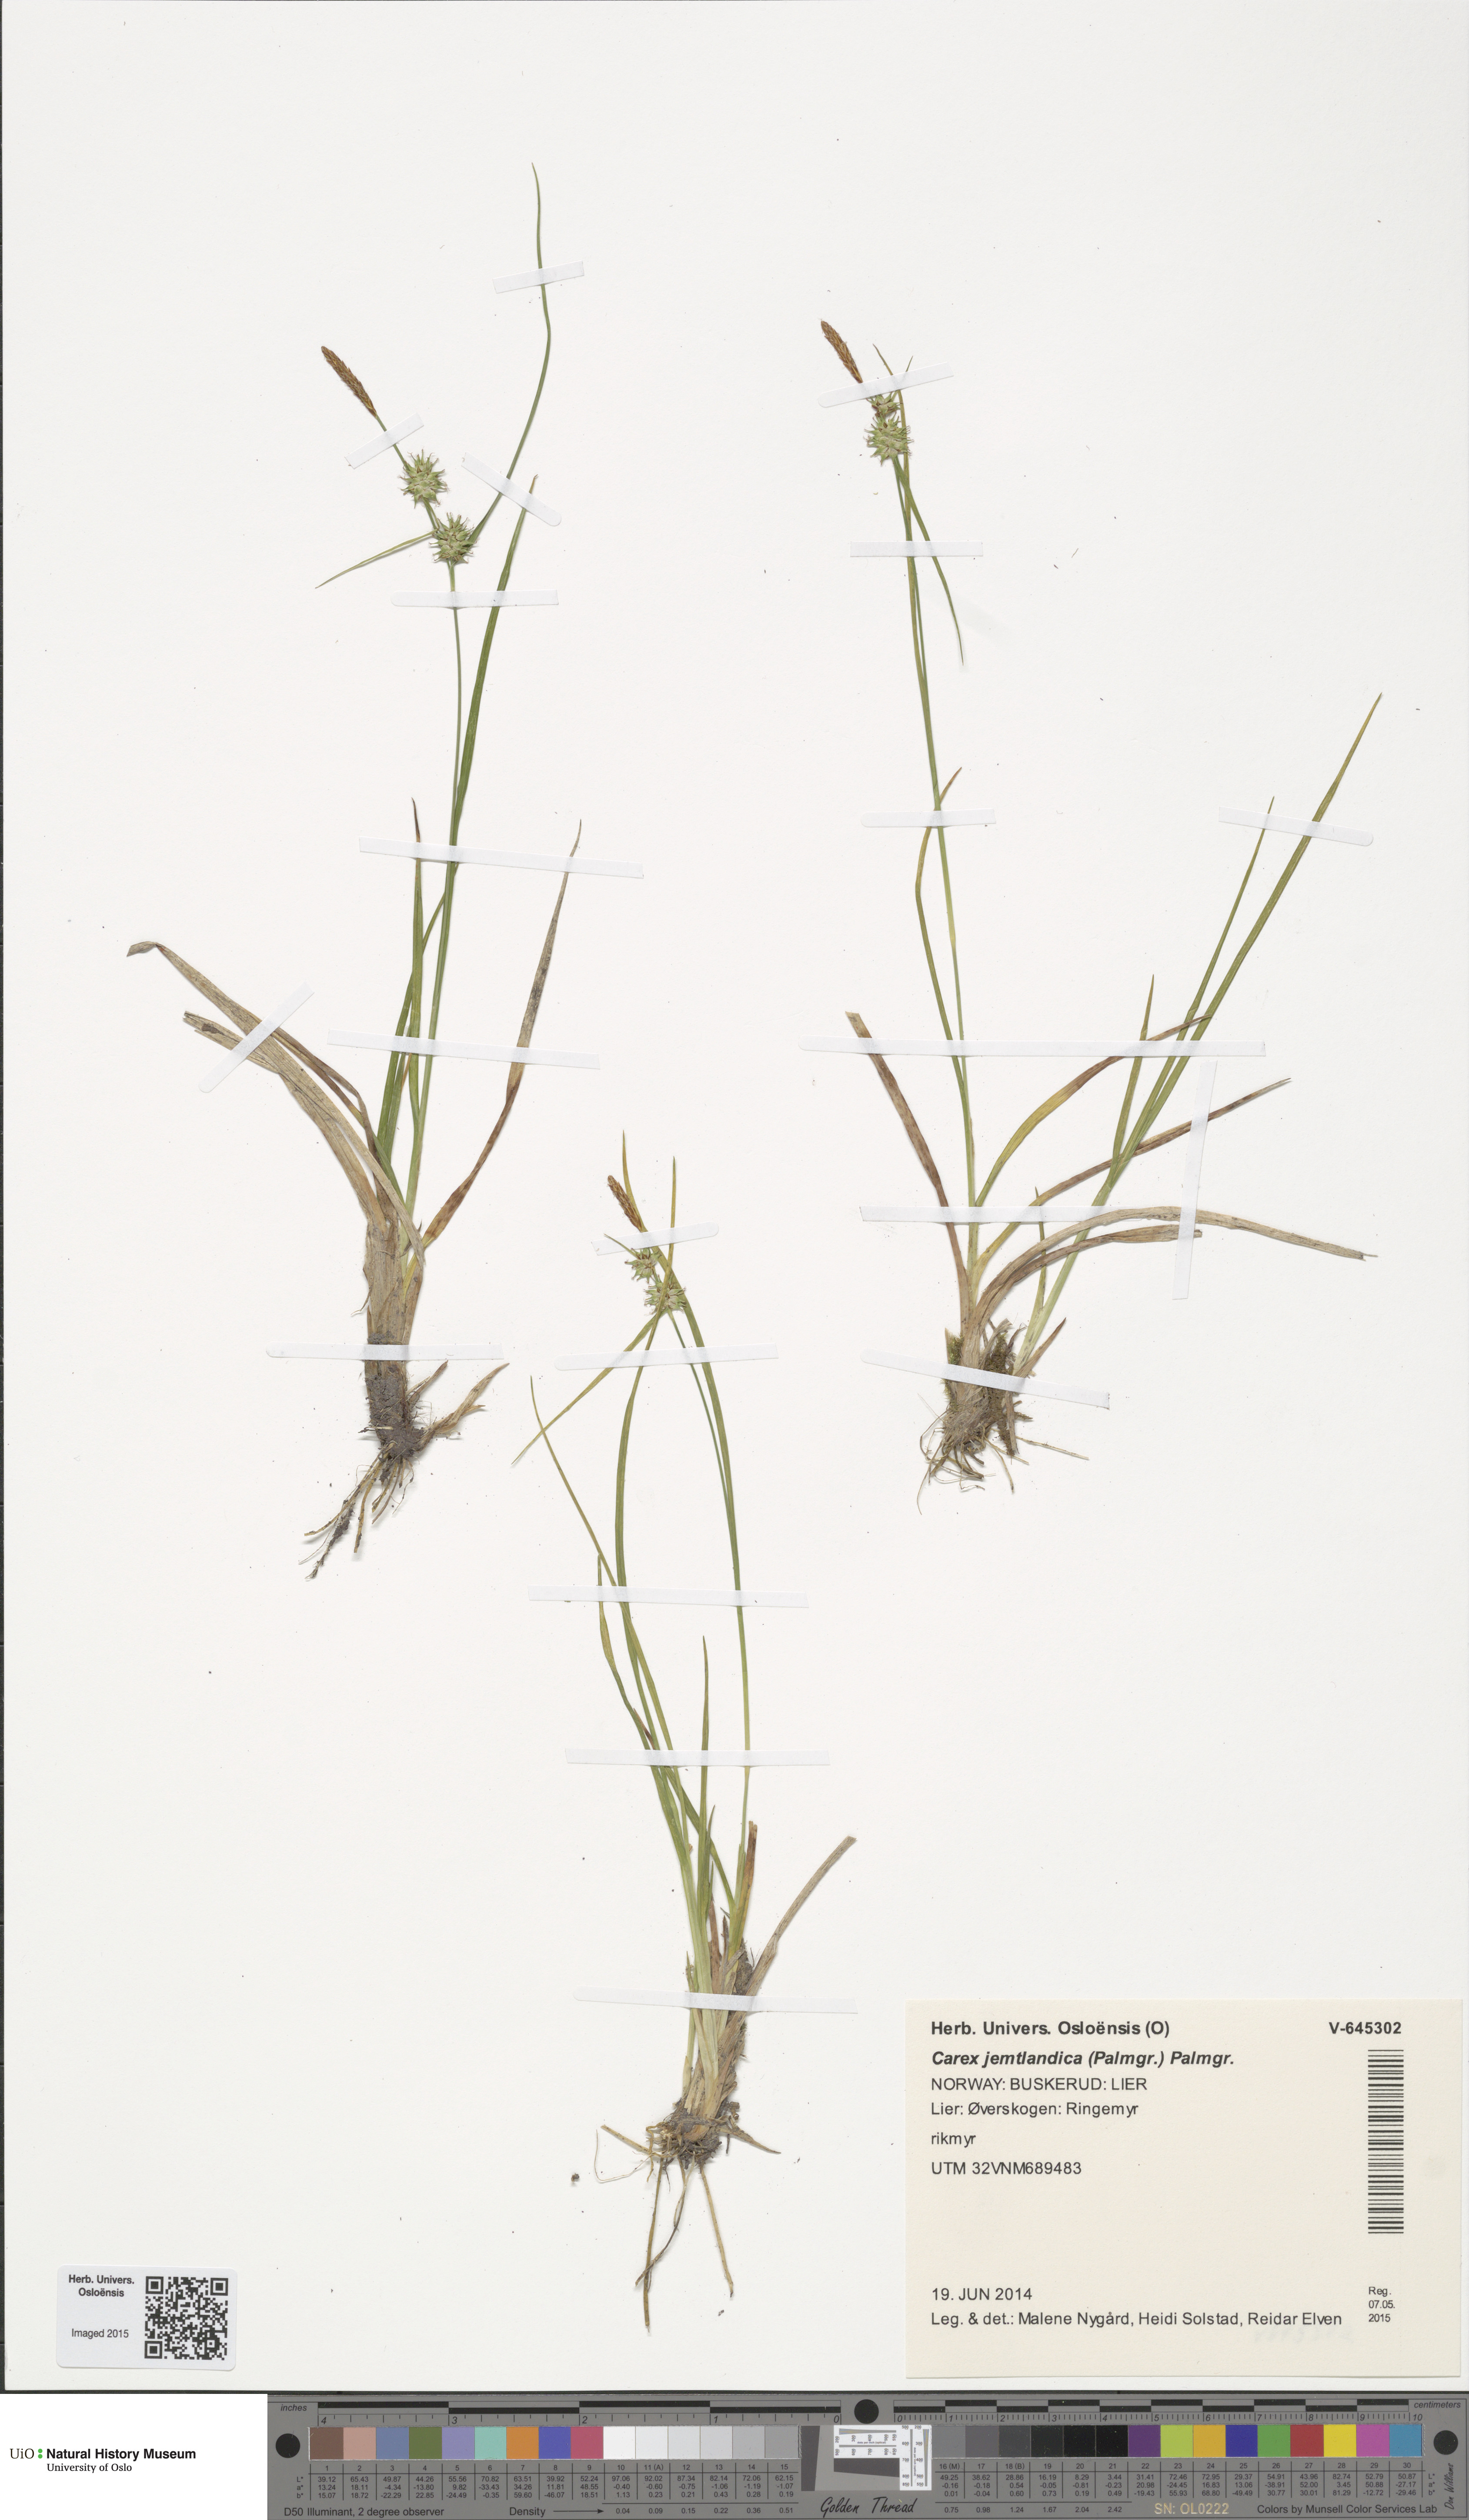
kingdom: Plantae
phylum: Tracheophyta
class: Liliopsida
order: Poales
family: Cyperaceae
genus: Carex
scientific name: Carex lepidocarpa
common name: Long-stalked yellow-sedge
